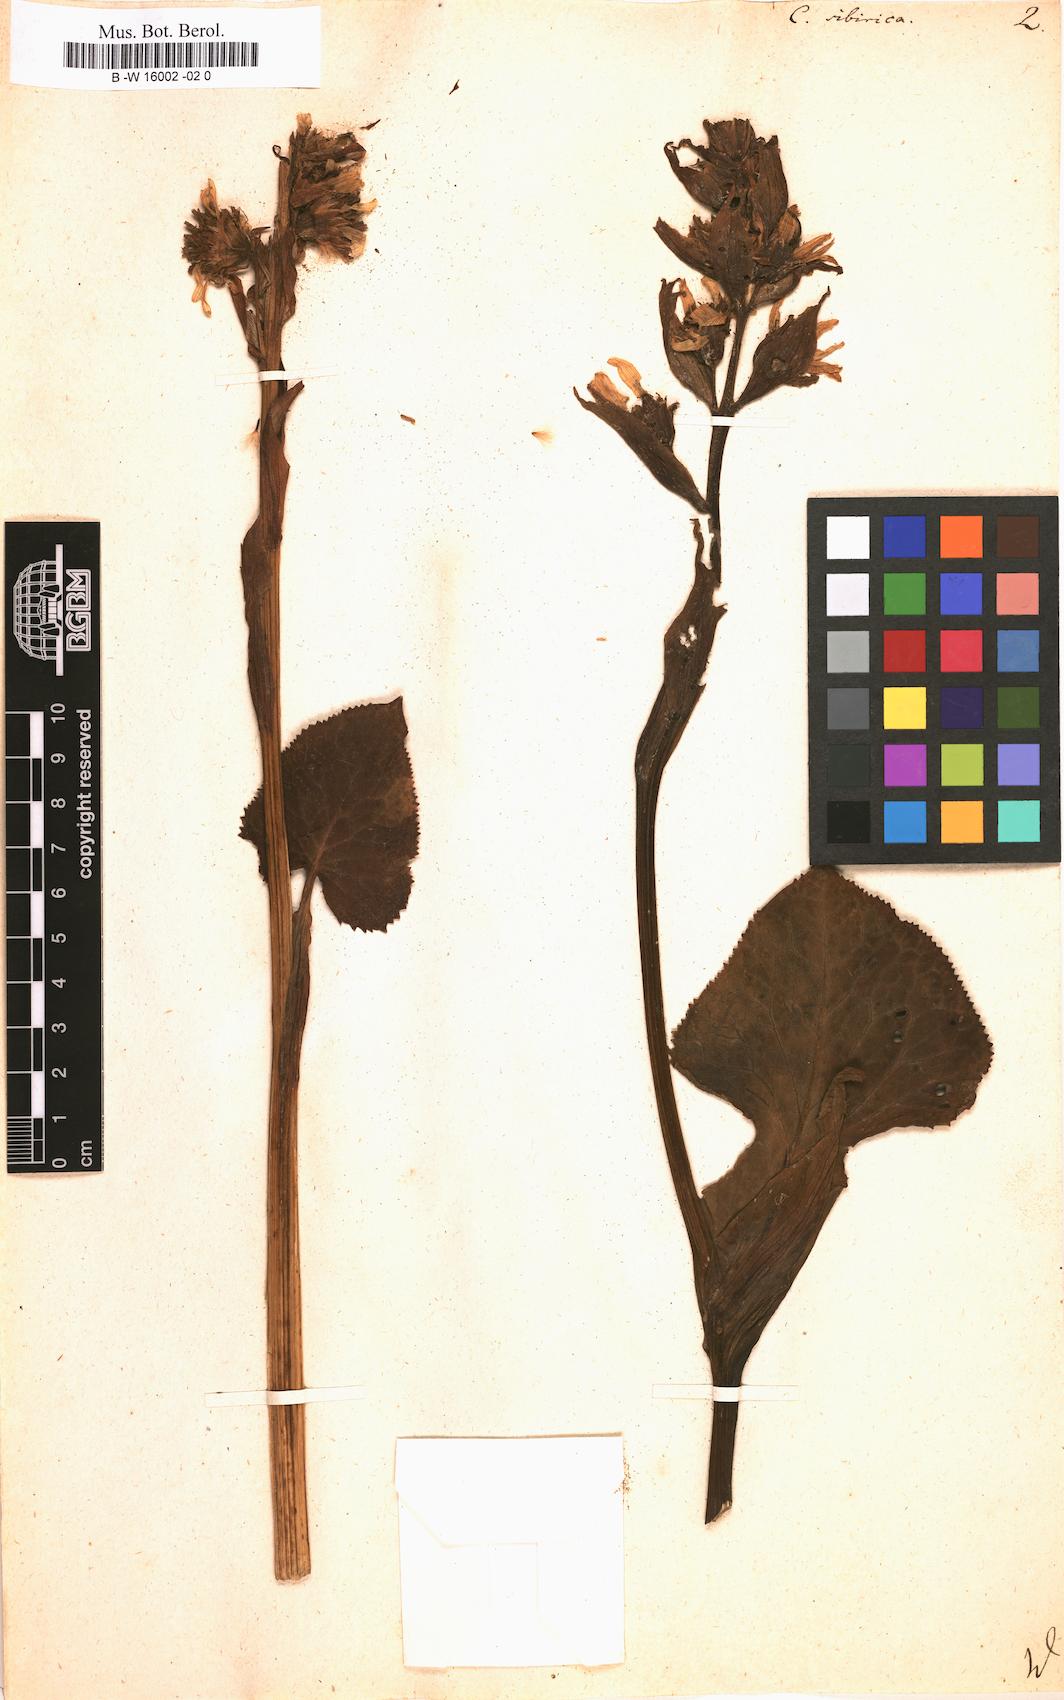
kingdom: Plantae
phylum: Tracheophyta
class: Magnoliopsida
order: Asterales
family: Asteraceae
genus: Ligularia
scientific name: Ligularia sibirica
